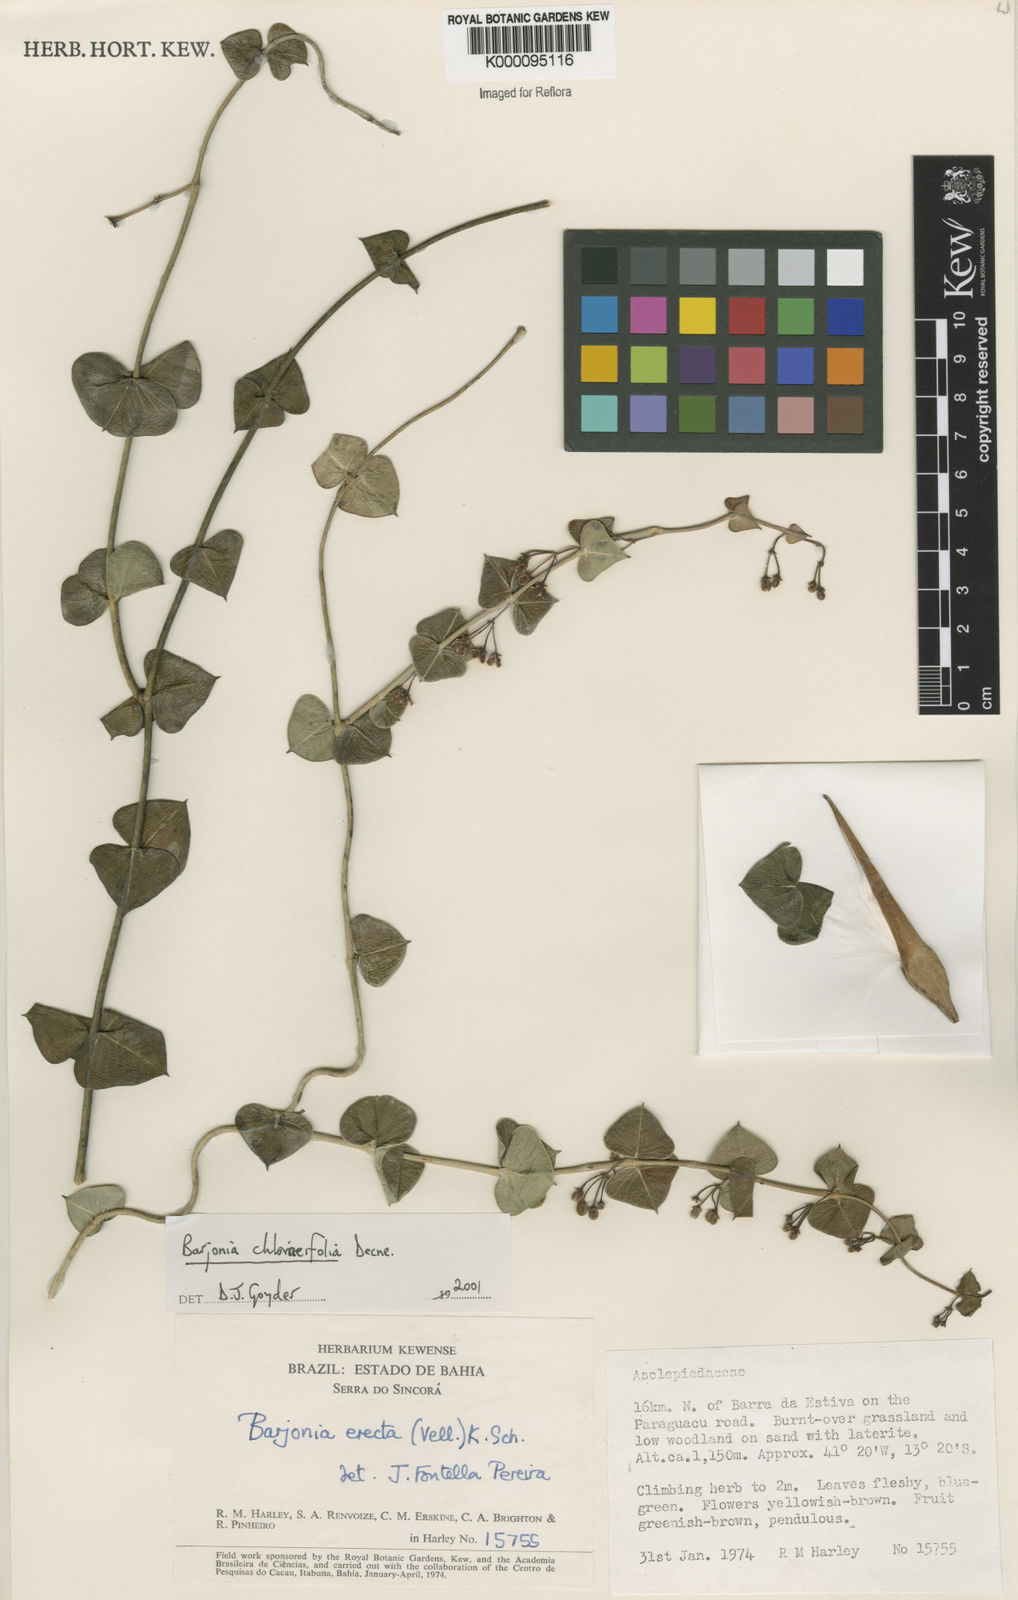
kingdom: Plantae
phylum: Tracheophyta
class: Magnoliopsida
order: Gentianales
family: Apocynaceae
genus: Barjonia
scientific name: Barjonia
